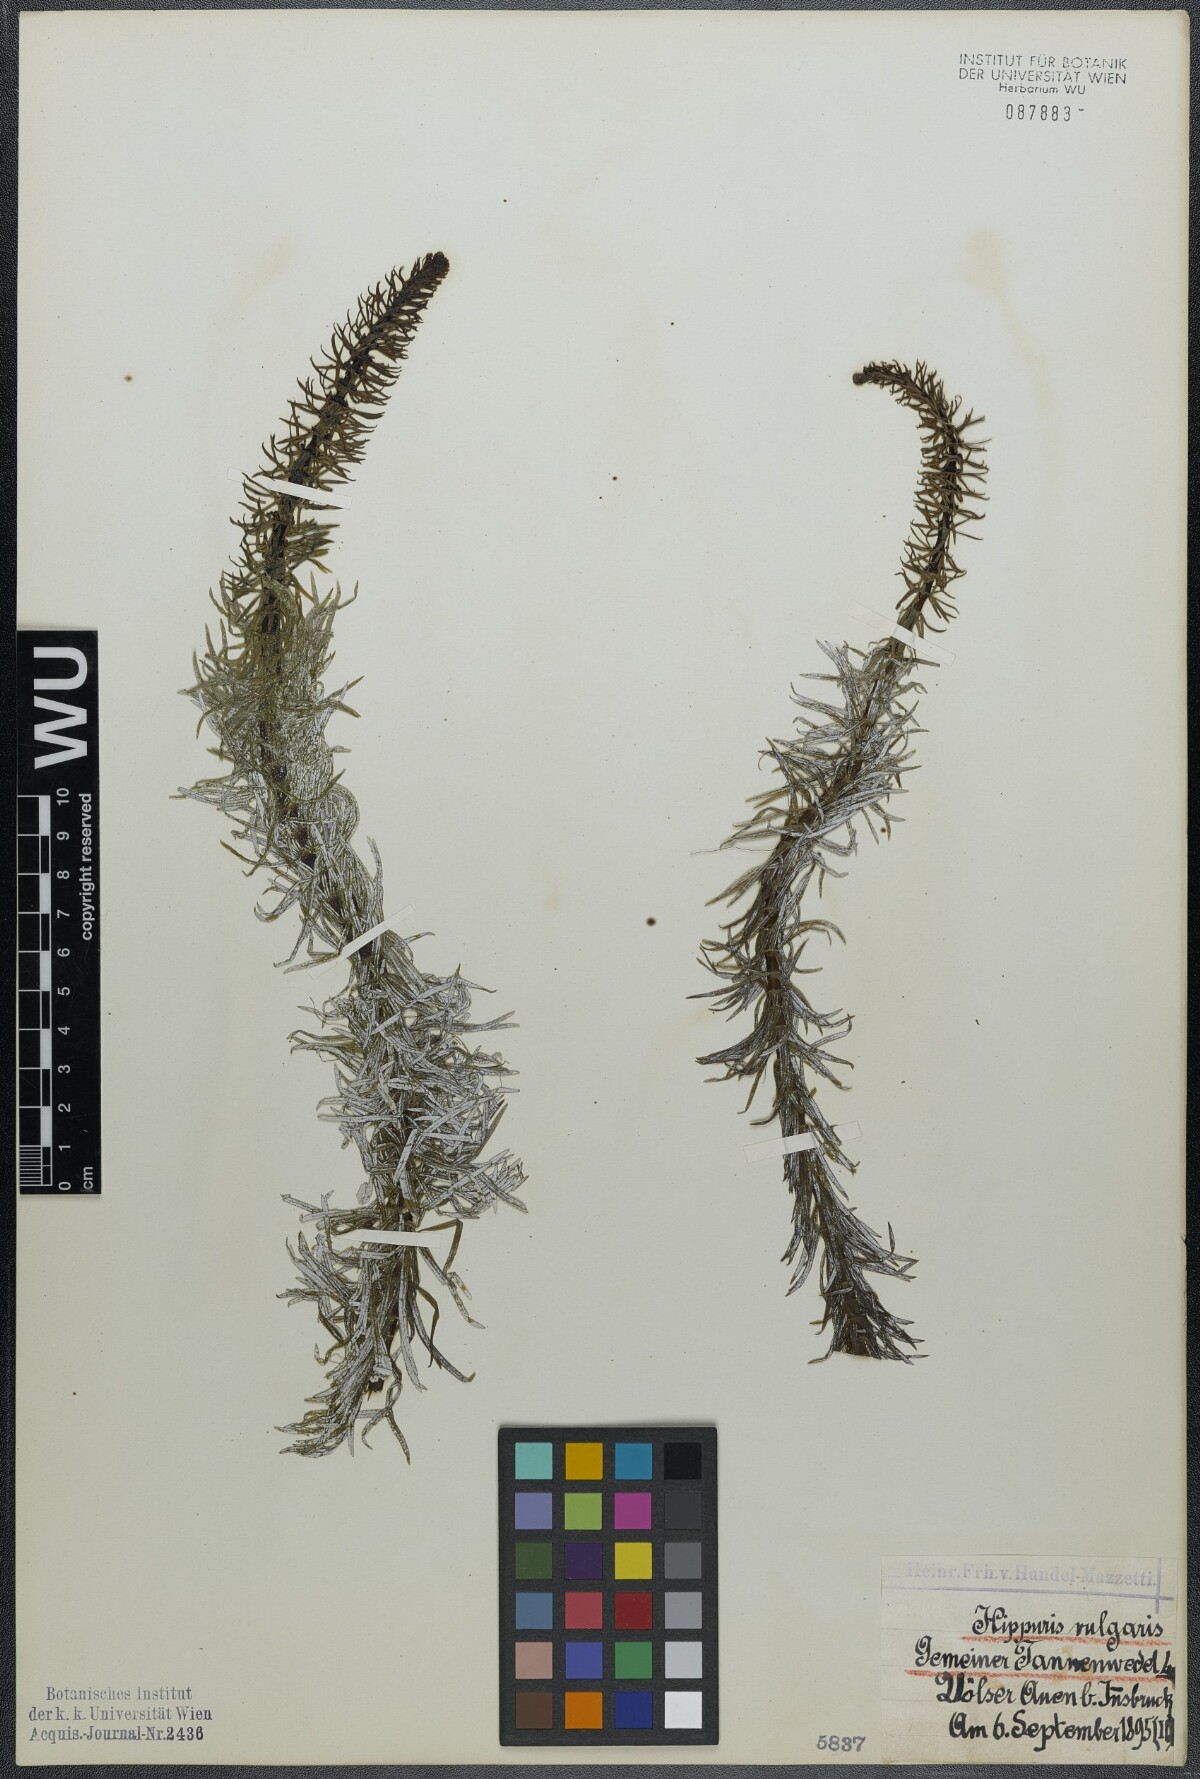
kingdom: Plantae
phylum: Tracheophyta
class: Magnoliopsida
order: Lamiales
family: Plantaginaceae
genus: Hippuris
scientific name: Hippuris vulgaris
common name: Mare's-tail
